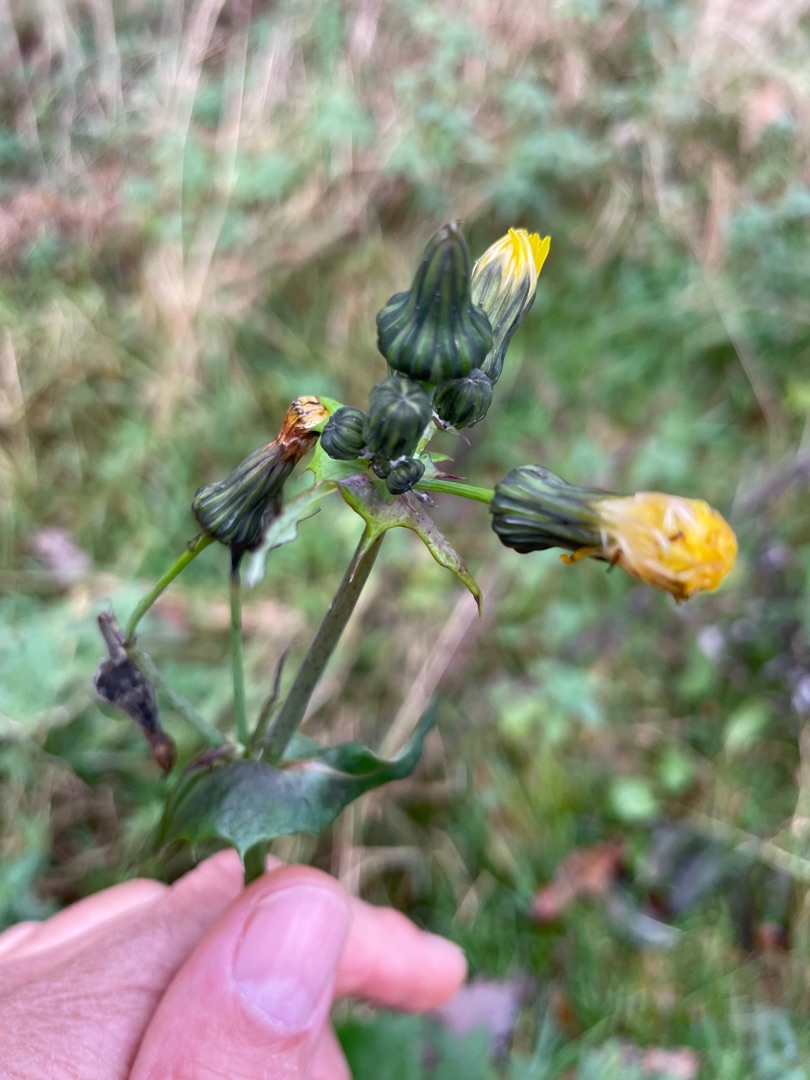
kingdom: Plantae
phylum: Tracheophyta
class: Magnoliopsida
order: Asterales
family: Asteraceae
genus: Sonchus
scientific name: Sonchus oleraceus
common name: Almindelig svinemælk
